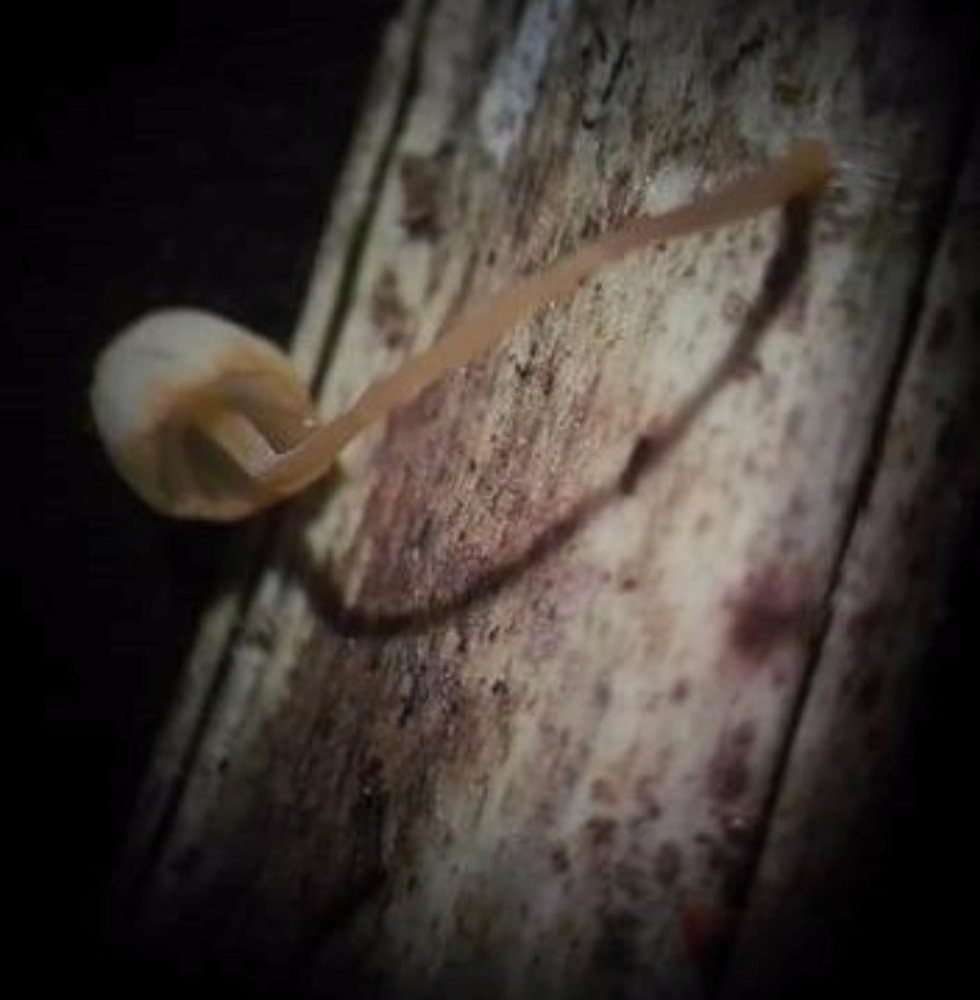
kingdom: Fungi
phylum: Basidiomycota
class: Agaricomycetes
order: Agaricales
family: Mycenaceae
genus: Mycena
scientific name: Mycena pterigena
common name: bregne-huesvamp
